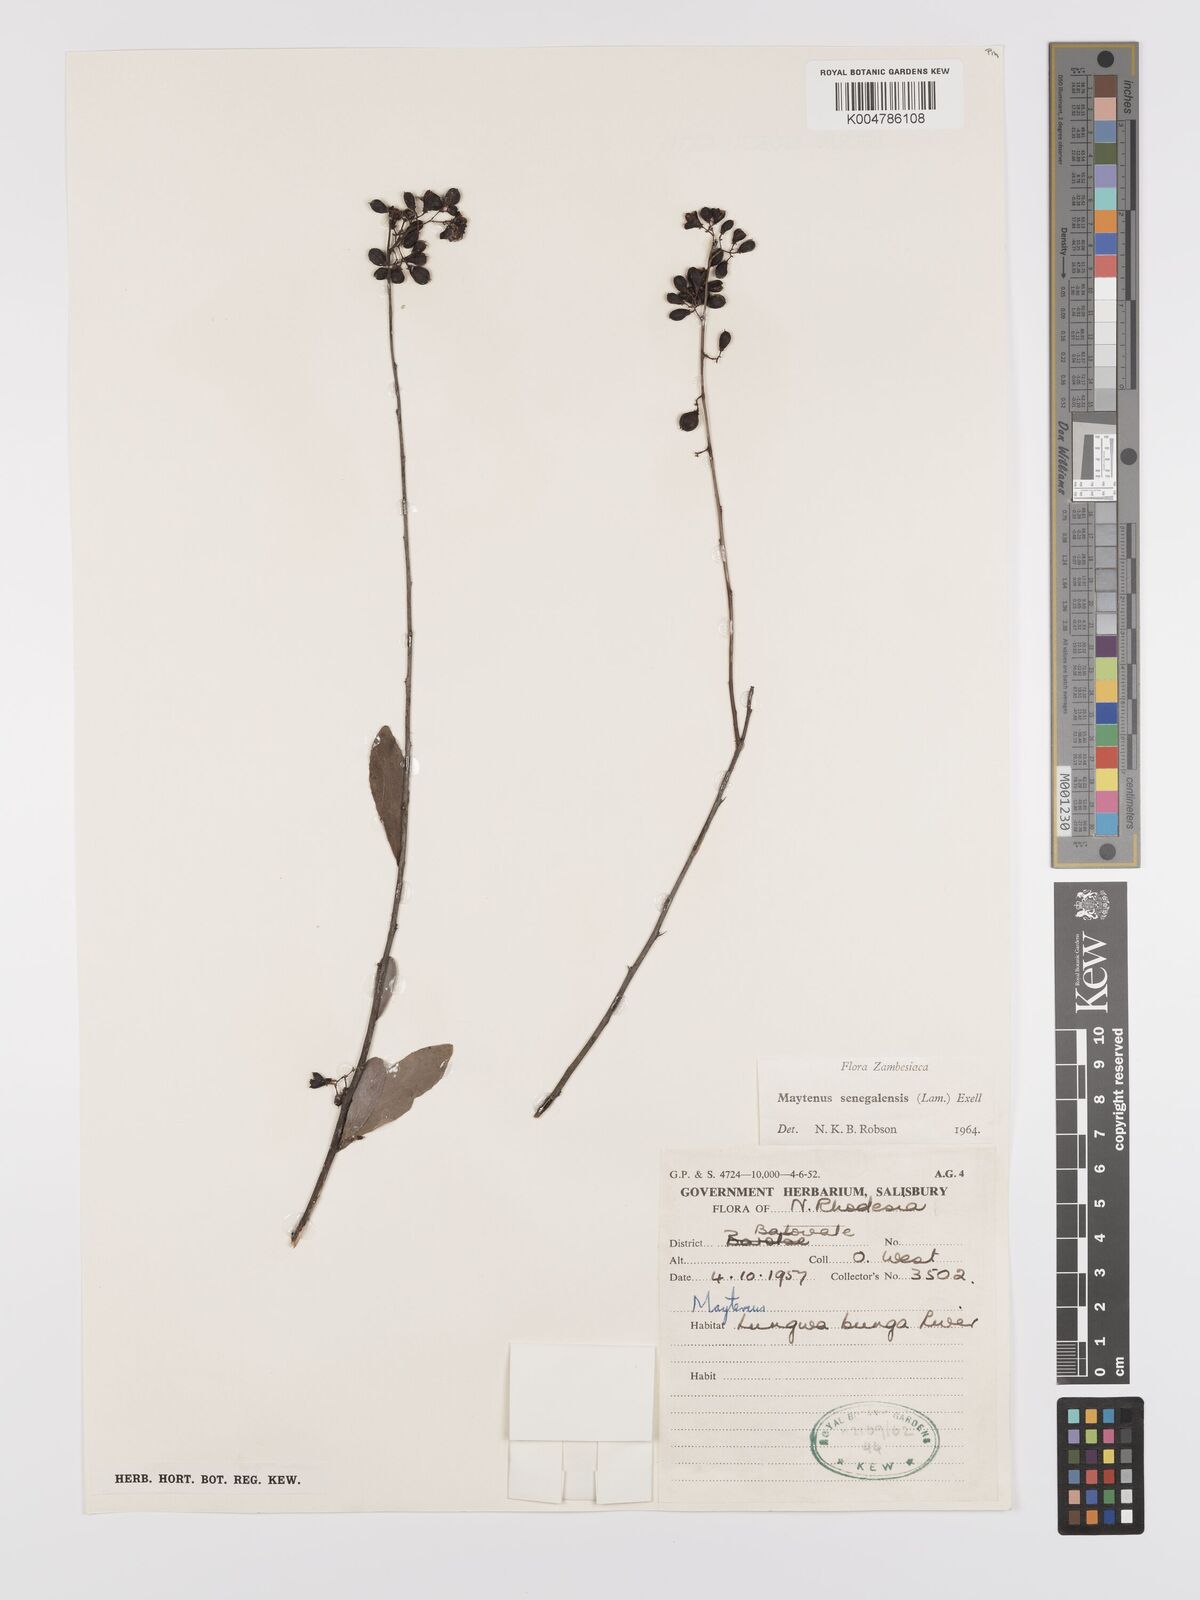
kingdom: Plantae
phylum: Tracheophyta
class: Magnoliopsida
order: Celastrales
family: Celastraceae
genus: Gymnosporia
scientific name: Gymnosporia senegalensis
